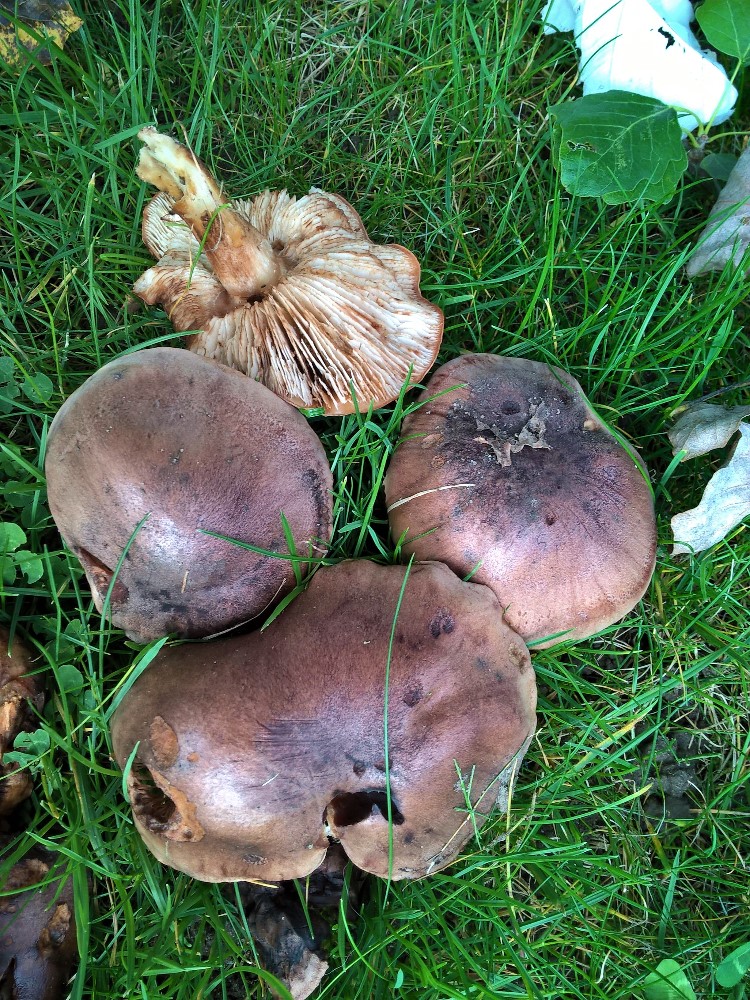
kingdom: Fungi
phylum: Basidiomycota
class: Agaricomycetes
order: Agaricales
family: Tricholomataceae
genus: Tricholoma
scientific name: Tricholoma populinum
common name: poppel-ridderhat
